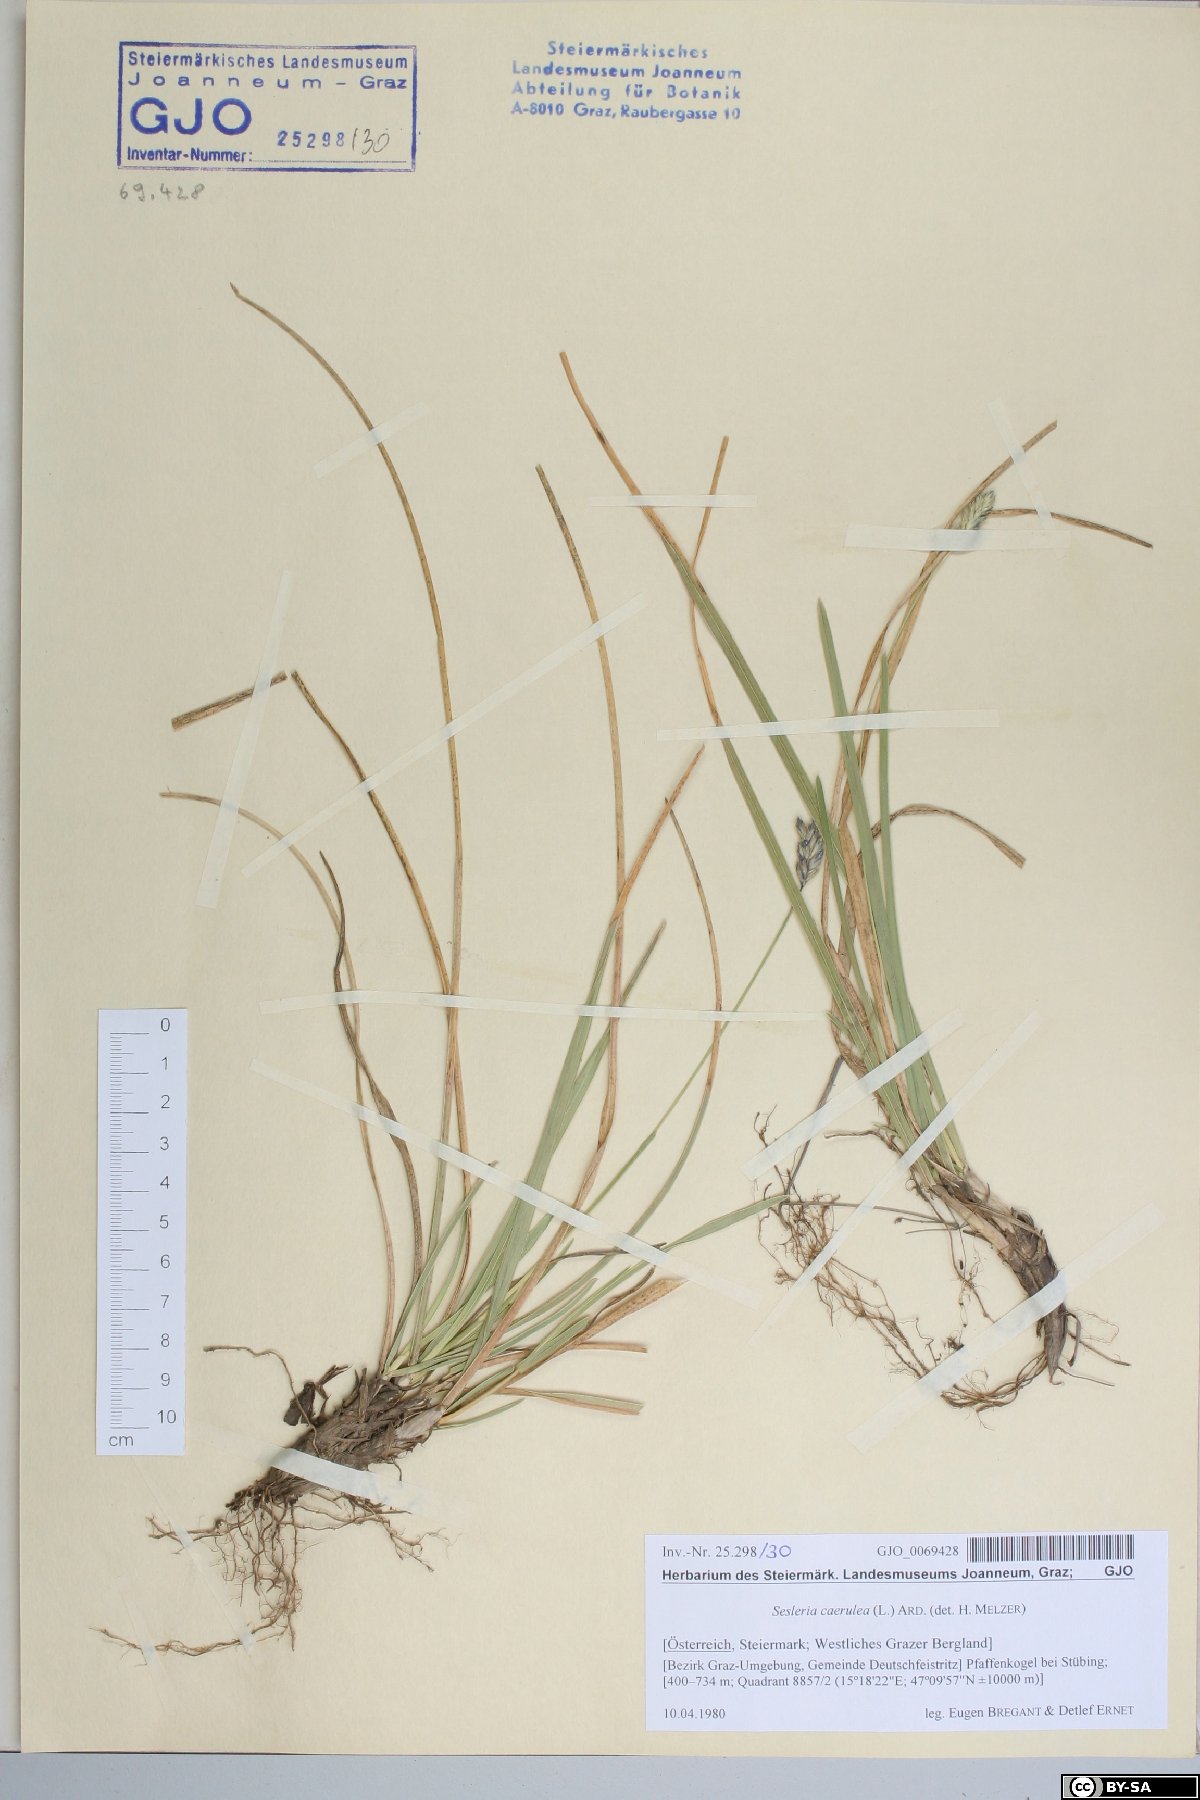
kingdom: Plantae
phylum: Tracheophyta
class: Liliopsida
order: Poales
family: Poaceae
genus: Sesleria
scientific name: Sesleria caerulea
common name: Blue moor-grass
